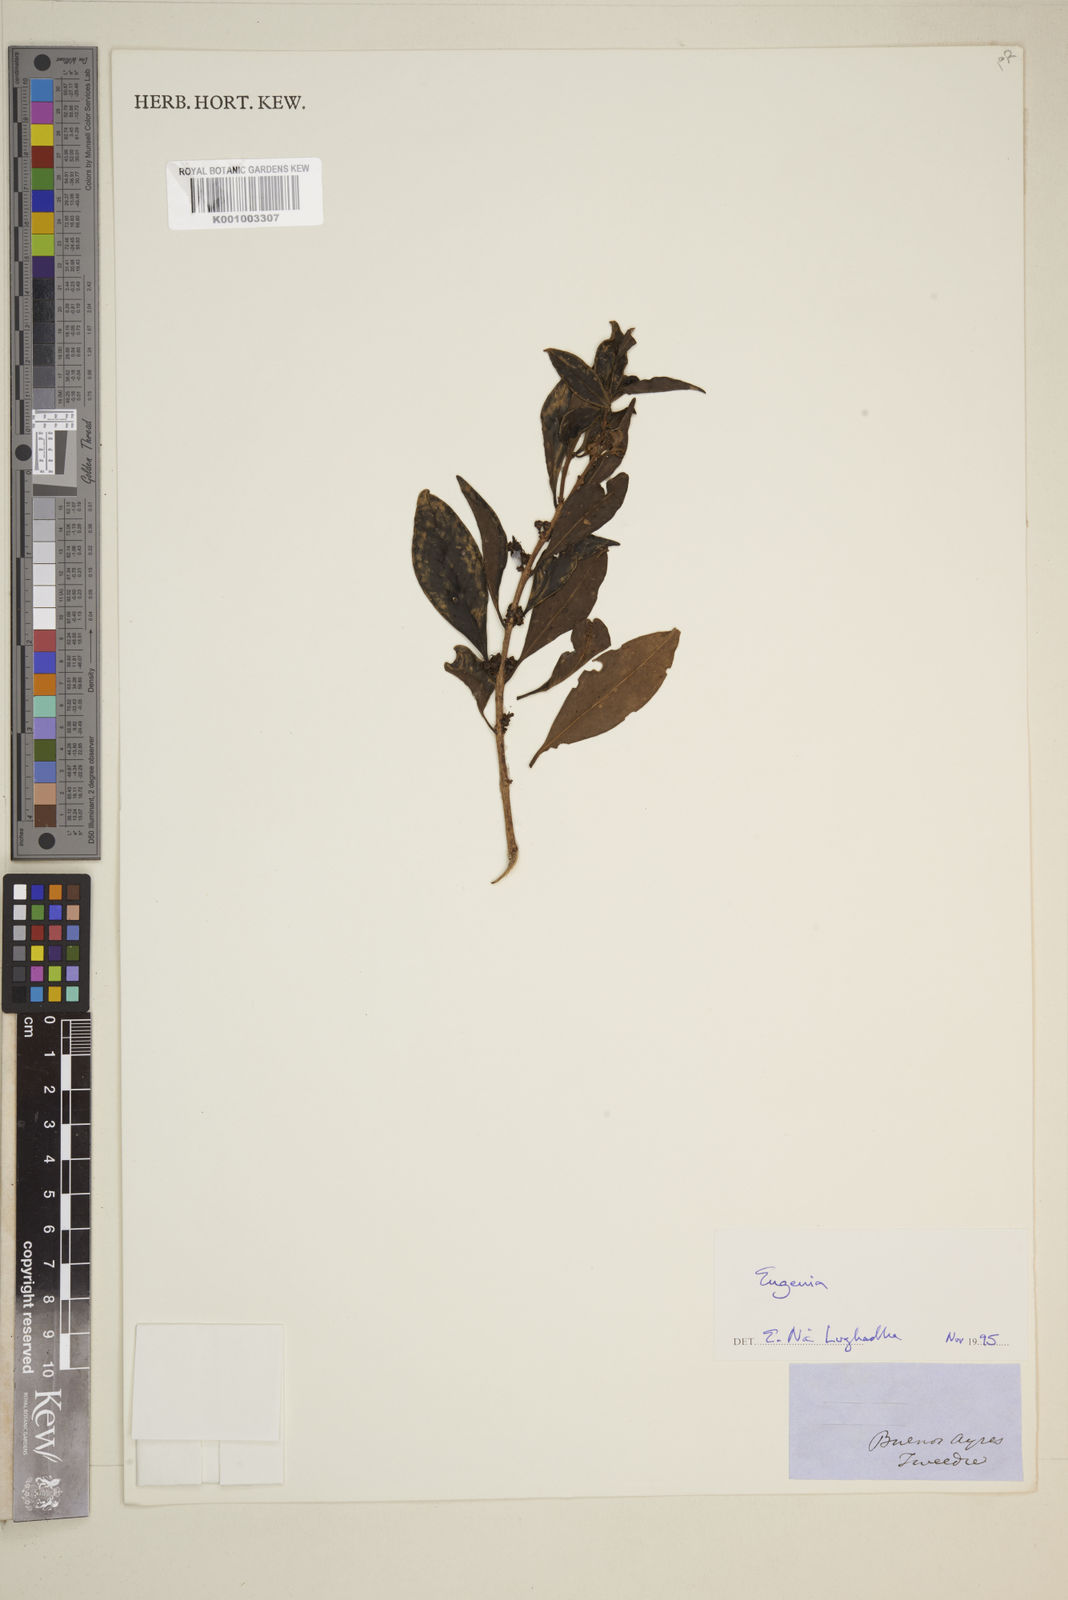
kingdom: Plantae
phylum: Tracheophyta
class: Magnoliopsida
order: Myrtales
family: Myrtaceae
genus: Eugenia
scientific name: Eugenia
